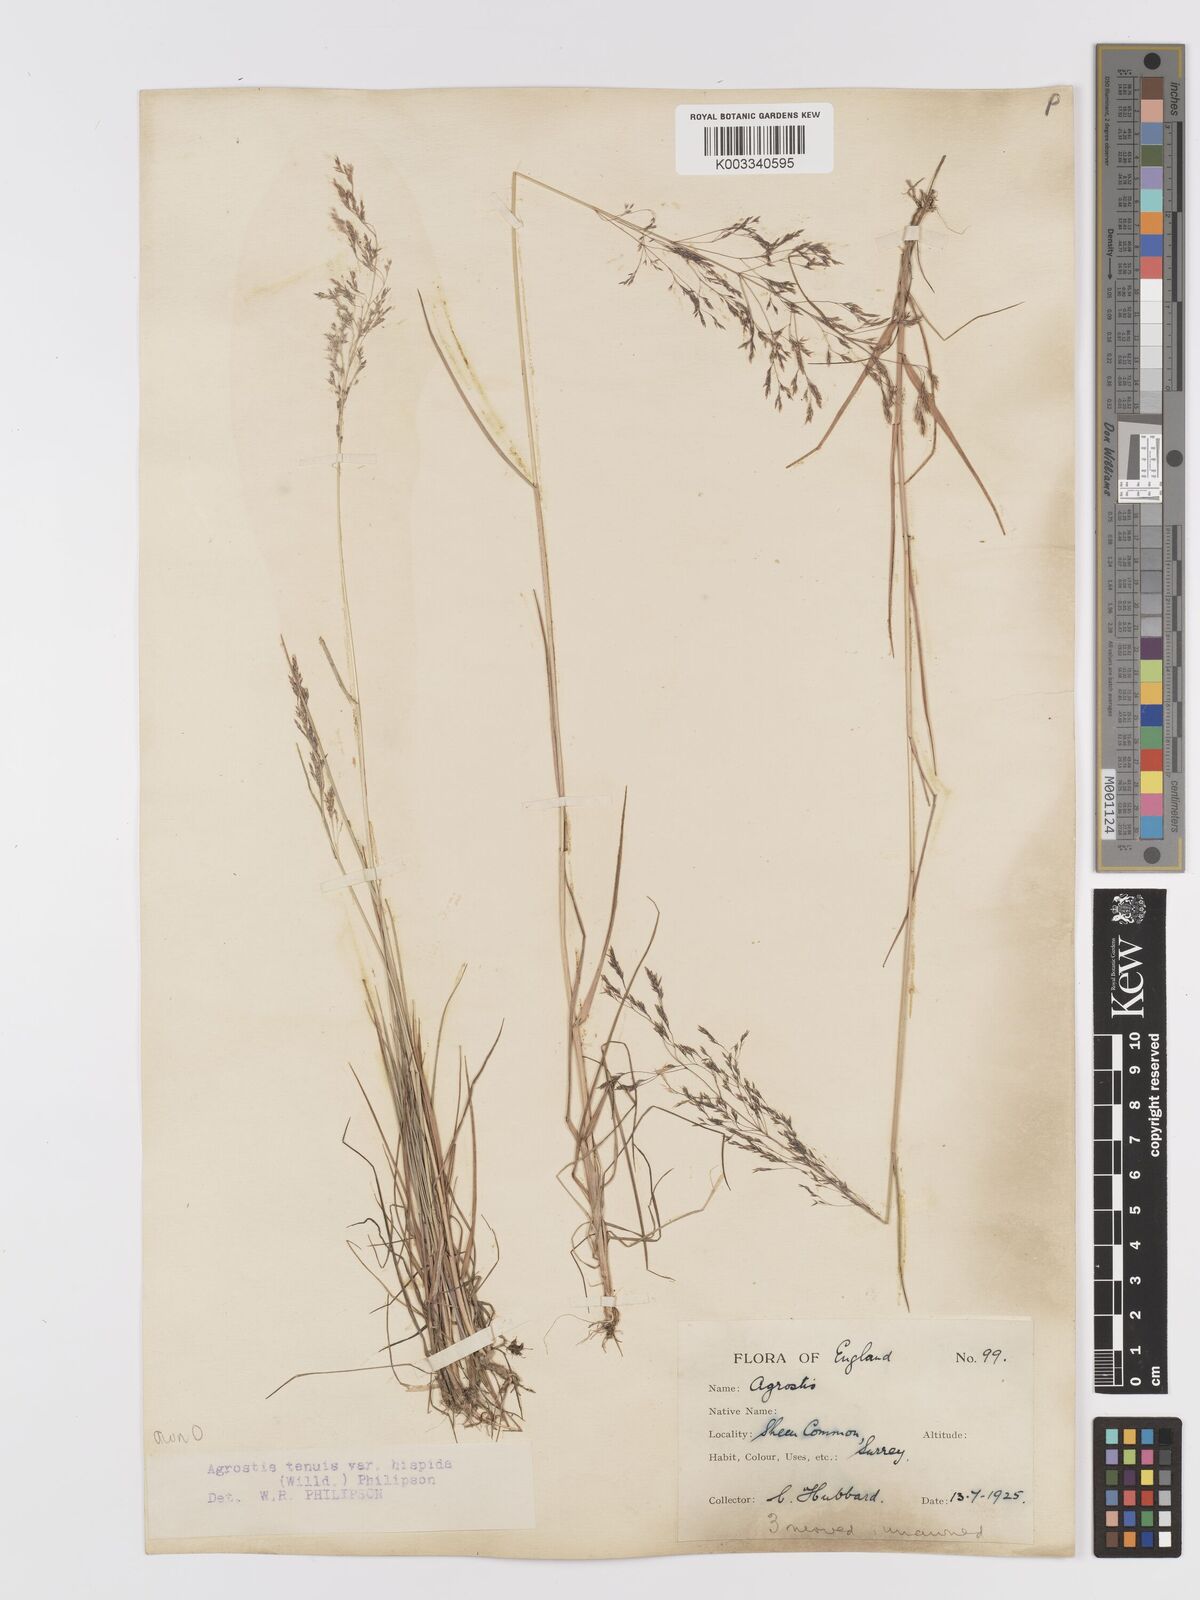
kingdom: Plantae
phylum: Tracheophyta
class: Liliopsida
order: Poales
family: Poaceae
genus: Agrostis
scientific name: Agrostis capillaris
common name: Colonial bentgrass
